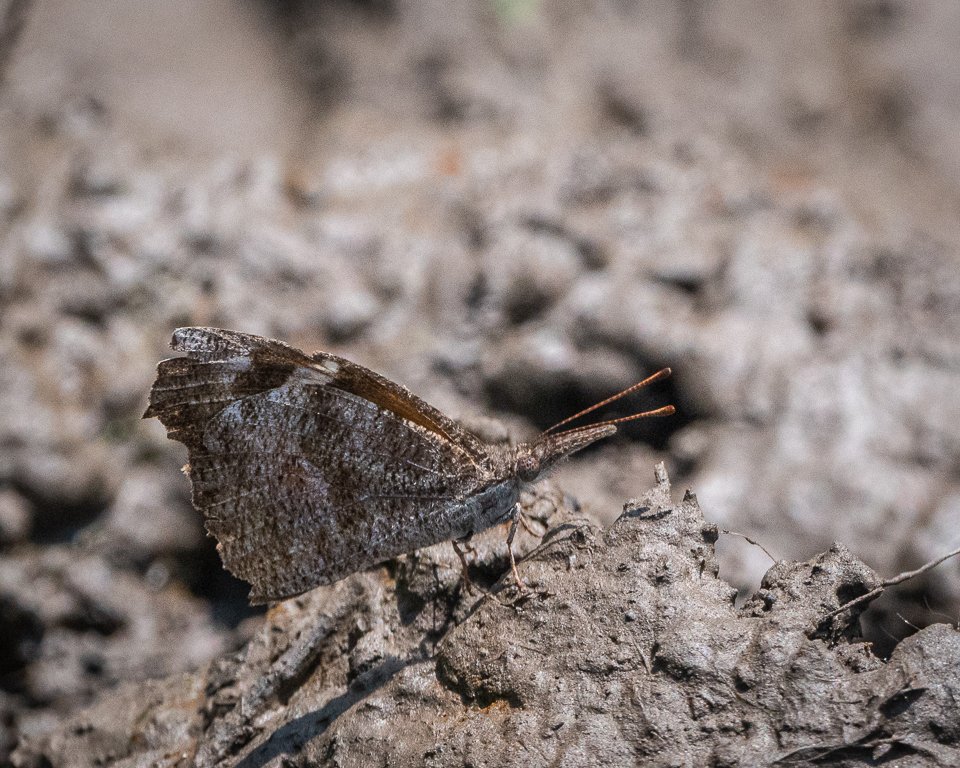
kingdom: Animalia
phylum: Arthropoda
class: Insecta
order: Lepidoptera
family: Nymphalidae
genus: Libytheana
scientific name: Libytheana carinenta
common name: American Snout
